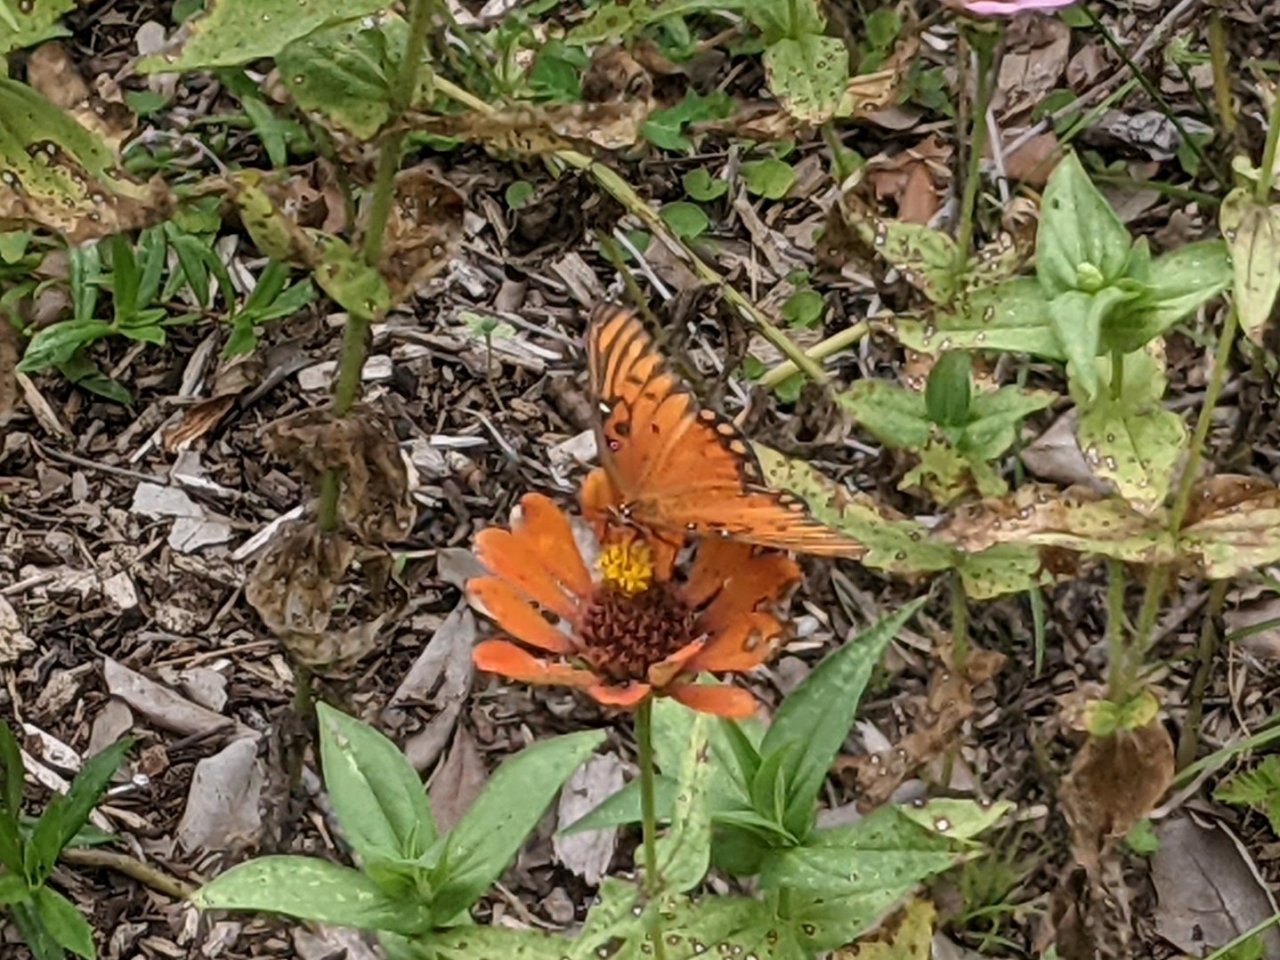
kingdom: Animalia
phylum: Arthropoda
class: Insecta
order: Lepidoptera
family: Nymphalidae
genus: Dione
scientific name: Dione vanillae
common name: Gulf Fritillary
